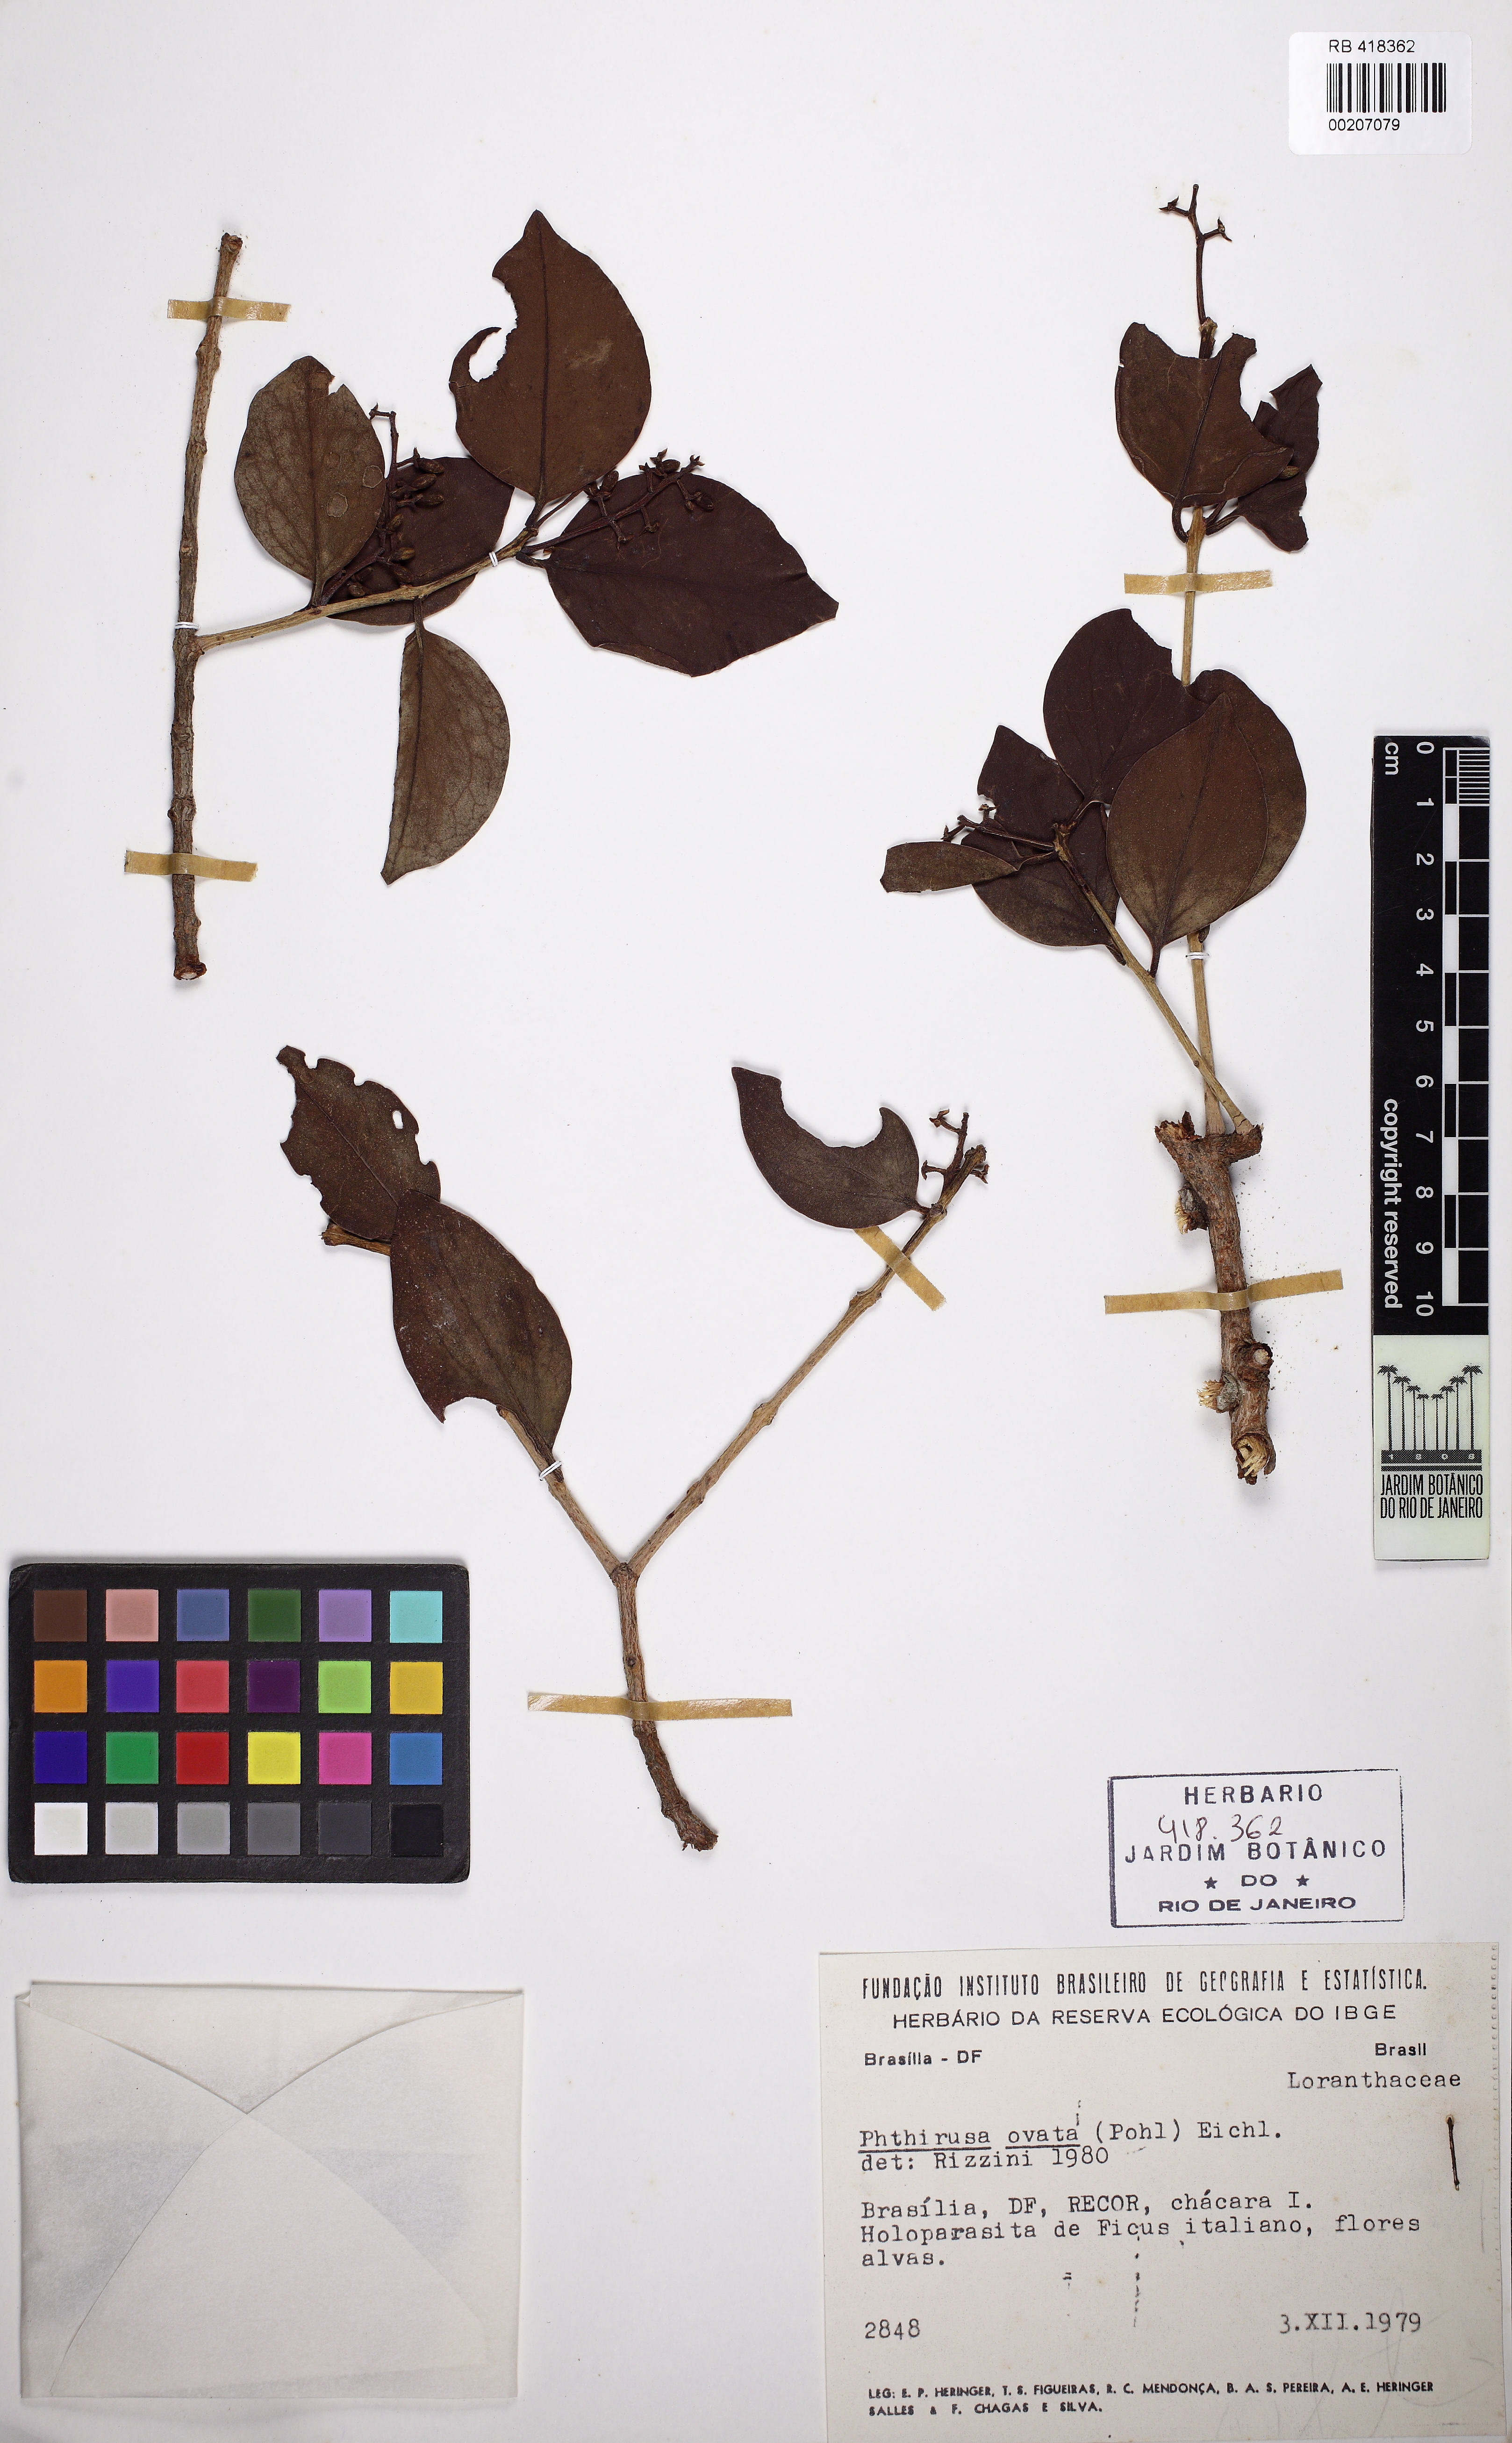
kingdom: Plantae
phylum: Tracheophyta
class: Magnoliopsida
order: Santalales
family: Loranthaceae
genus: Passovia
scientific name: Passovia ovata
